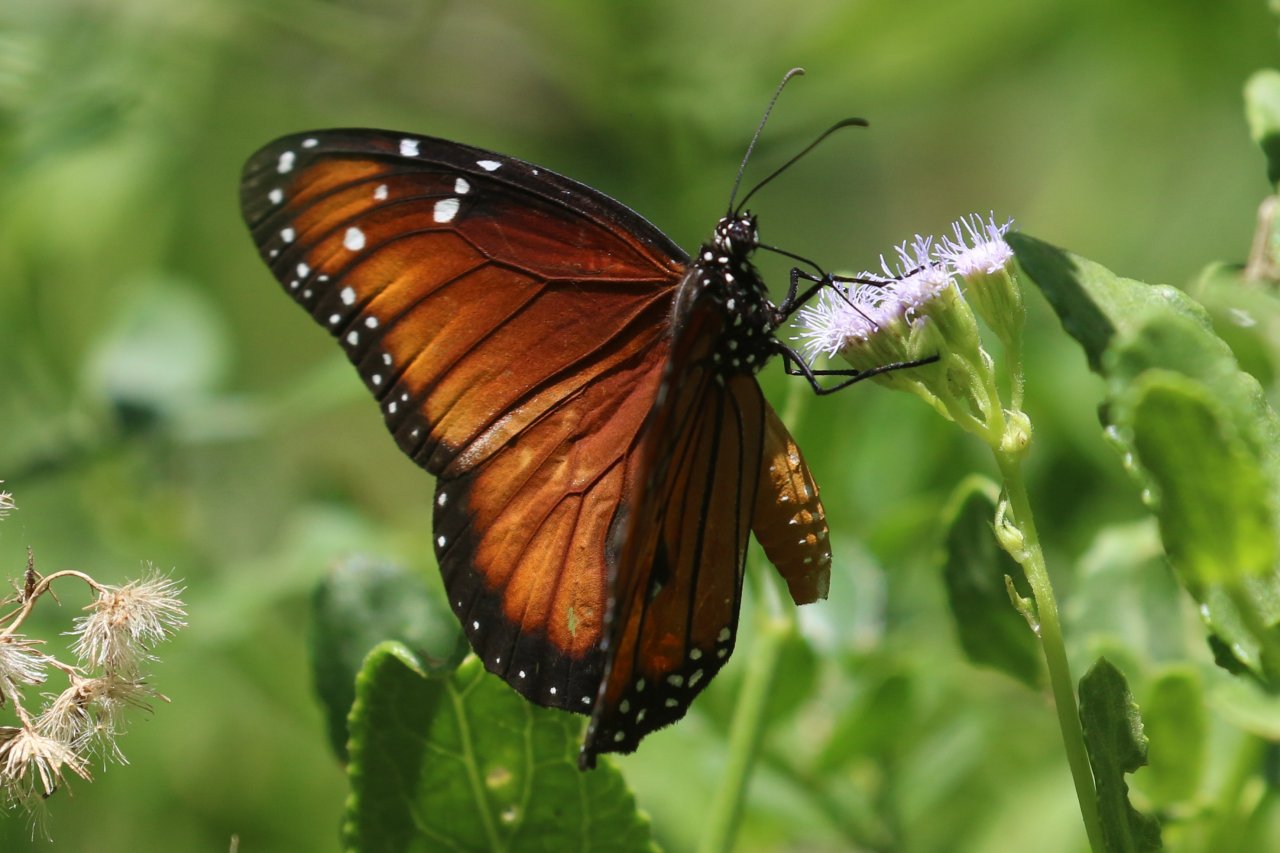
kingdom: Animalia
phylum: Arthropoda
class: Insecta
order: Lepidoptera
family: Nymphalidae
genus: Danaus
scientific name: Danaus eresimus
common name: Soldier
